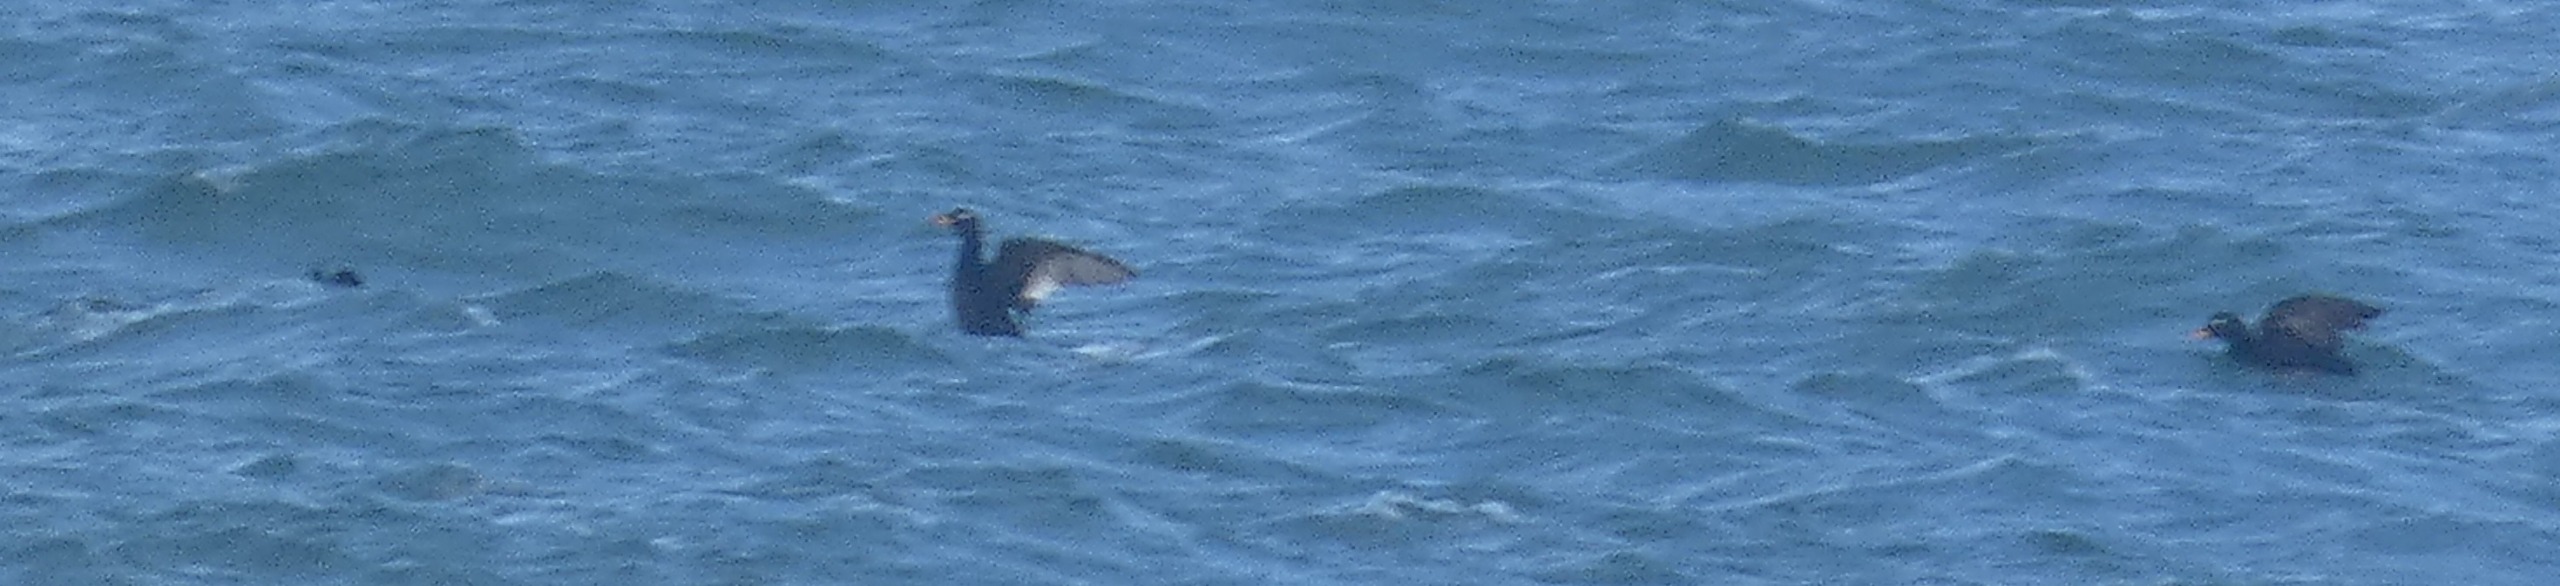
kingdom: Animalia
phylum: Chordata
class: Aves
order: Anseriformes
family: Anatidae
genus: Melanitta
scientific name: Melanitta fusca
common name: Fløjlsand
